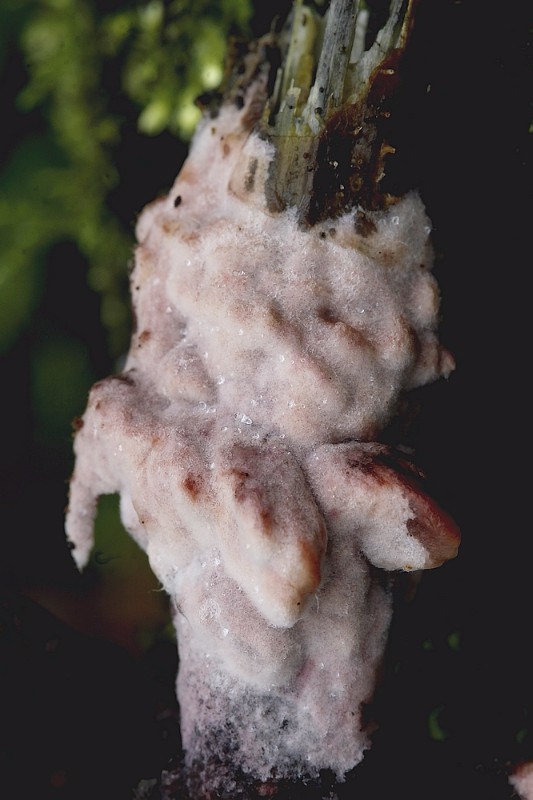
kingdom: Fungi
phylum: Basidiomycota
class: Pucciniomycetes
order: Helicobasidiales
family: Helicobasidiaceae
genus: Helicobasidium
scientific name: Helicobasidium purpureum
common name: purpur-bispebævrehinde
